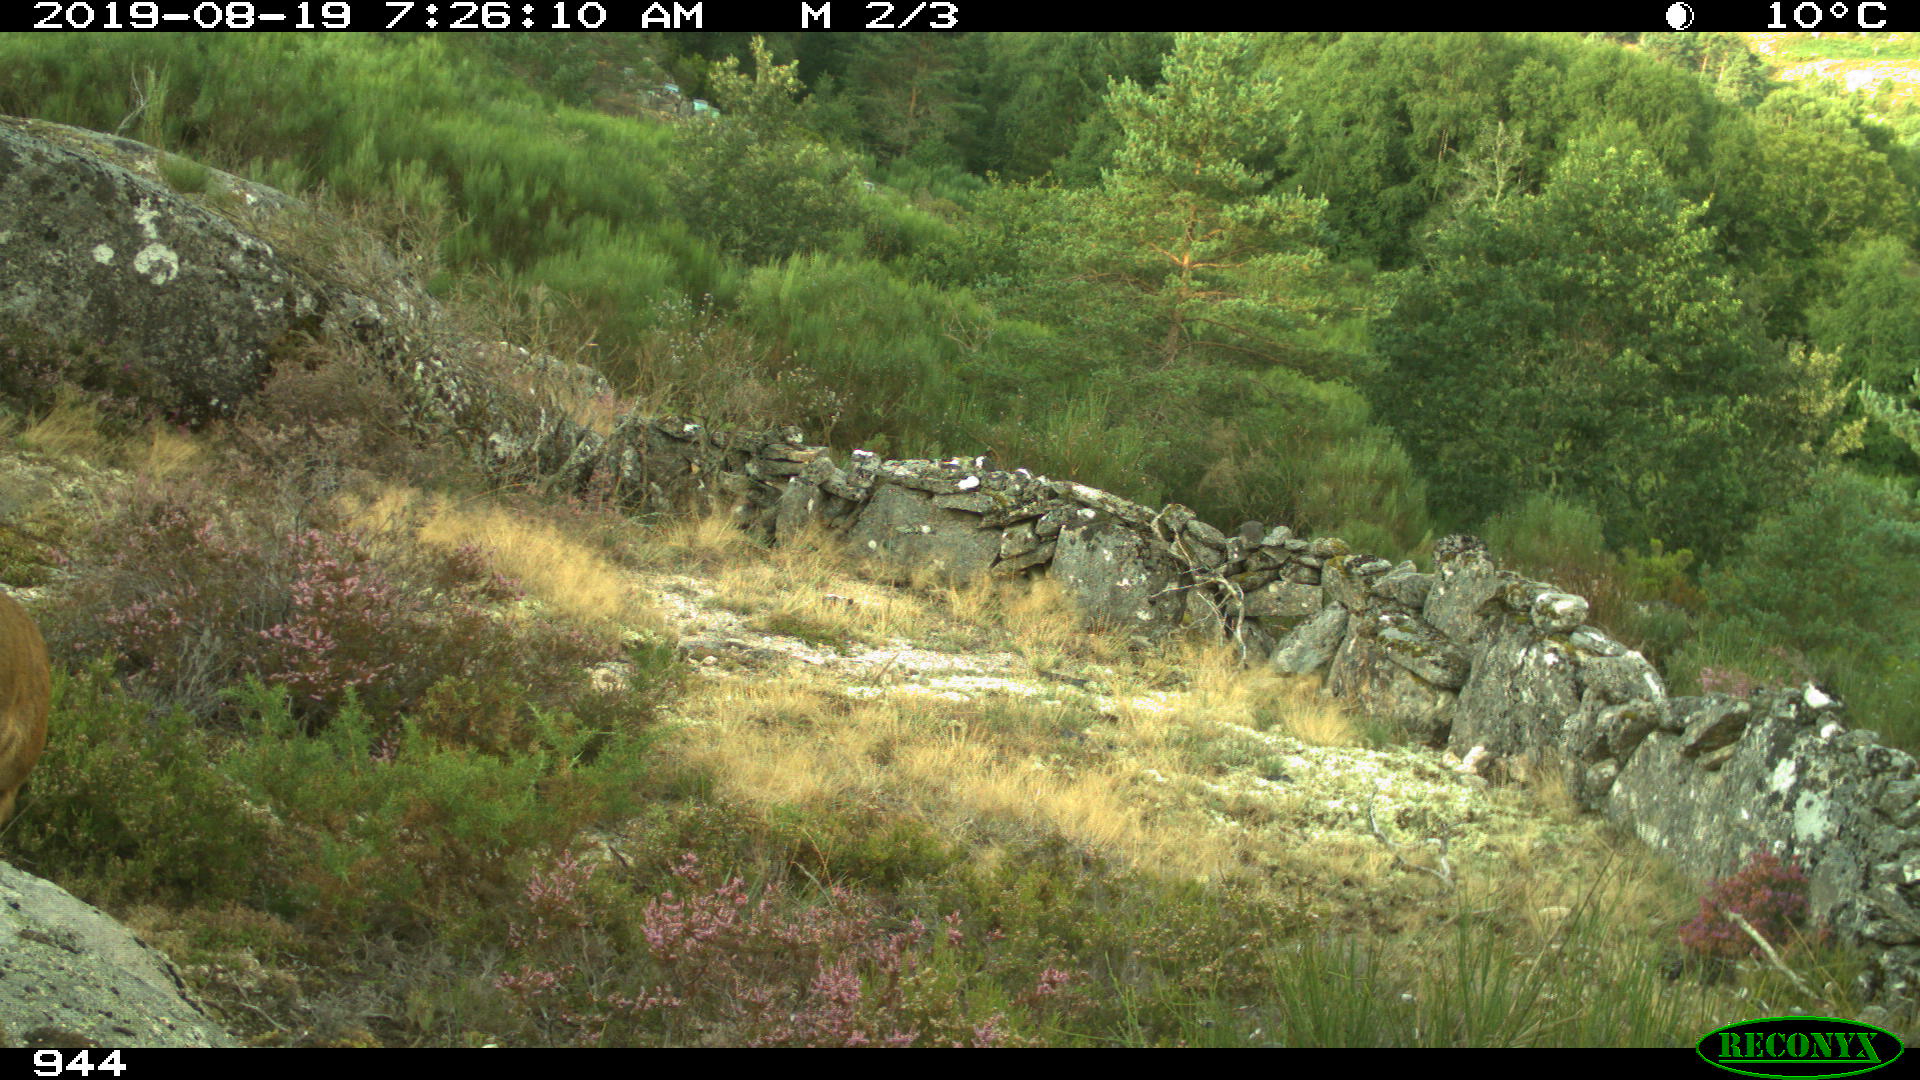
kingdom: Animalia
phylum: Chordata
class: Mammalia
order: Artiodactyla
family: Cervidae
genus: Capreolus
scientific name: Capreolus capreolus
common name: Western roe deer
